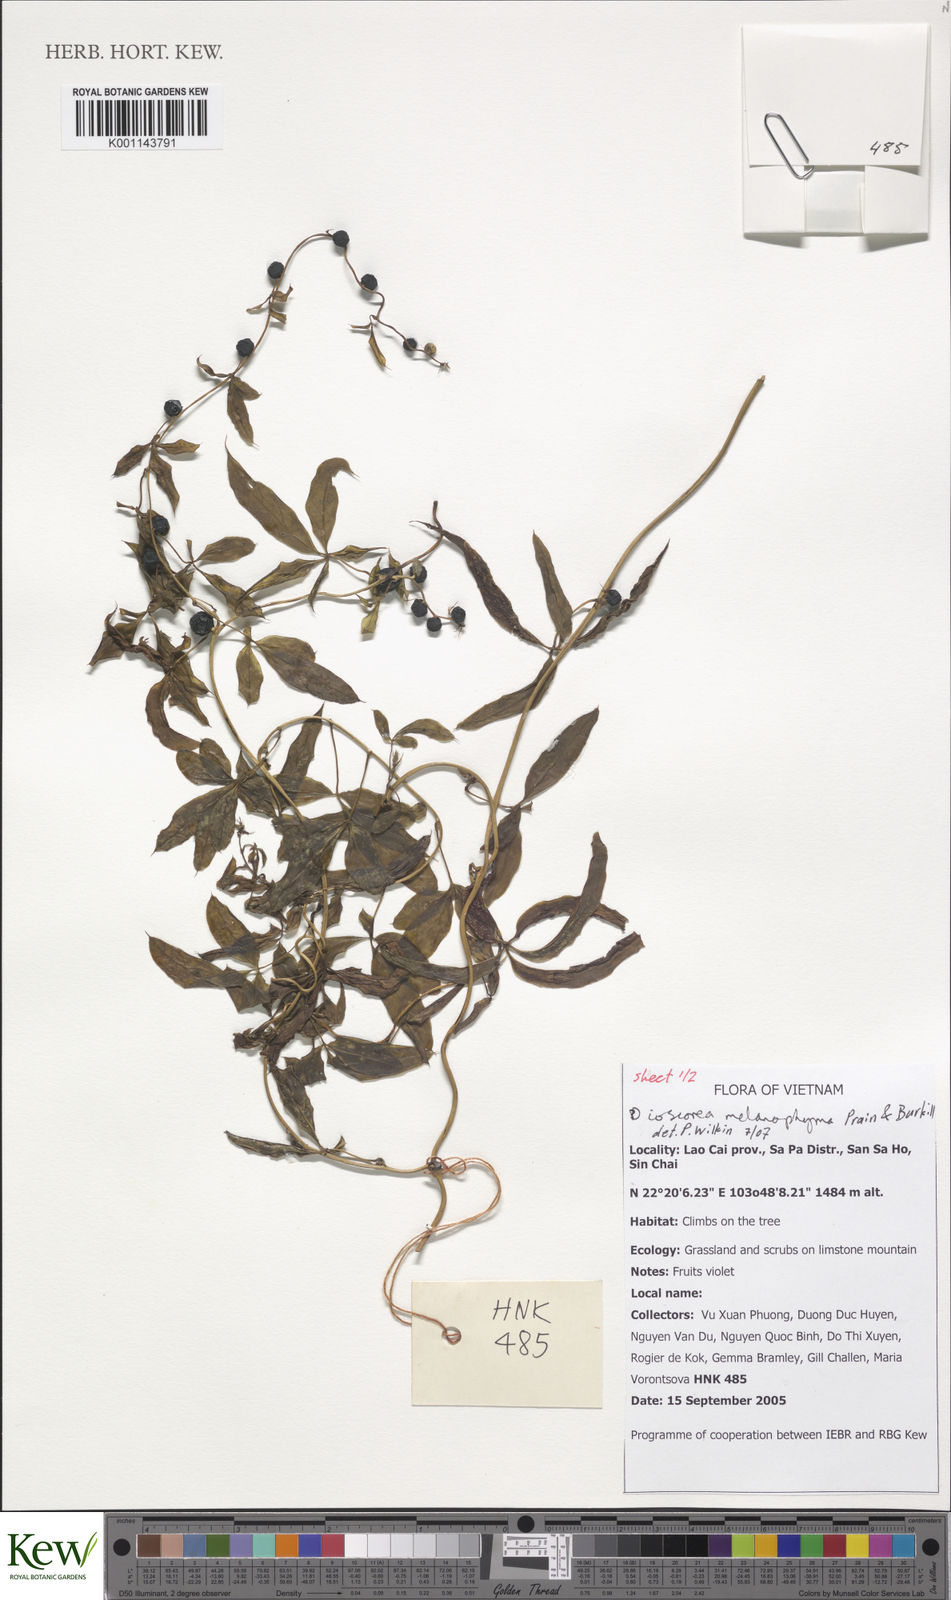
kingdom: Plantae
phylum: Tracheophyta
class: Liliopsida
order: Dioscoreales
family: Dioscoreaceae
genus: Dioscorea
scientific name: Dioscorea melanophyma
